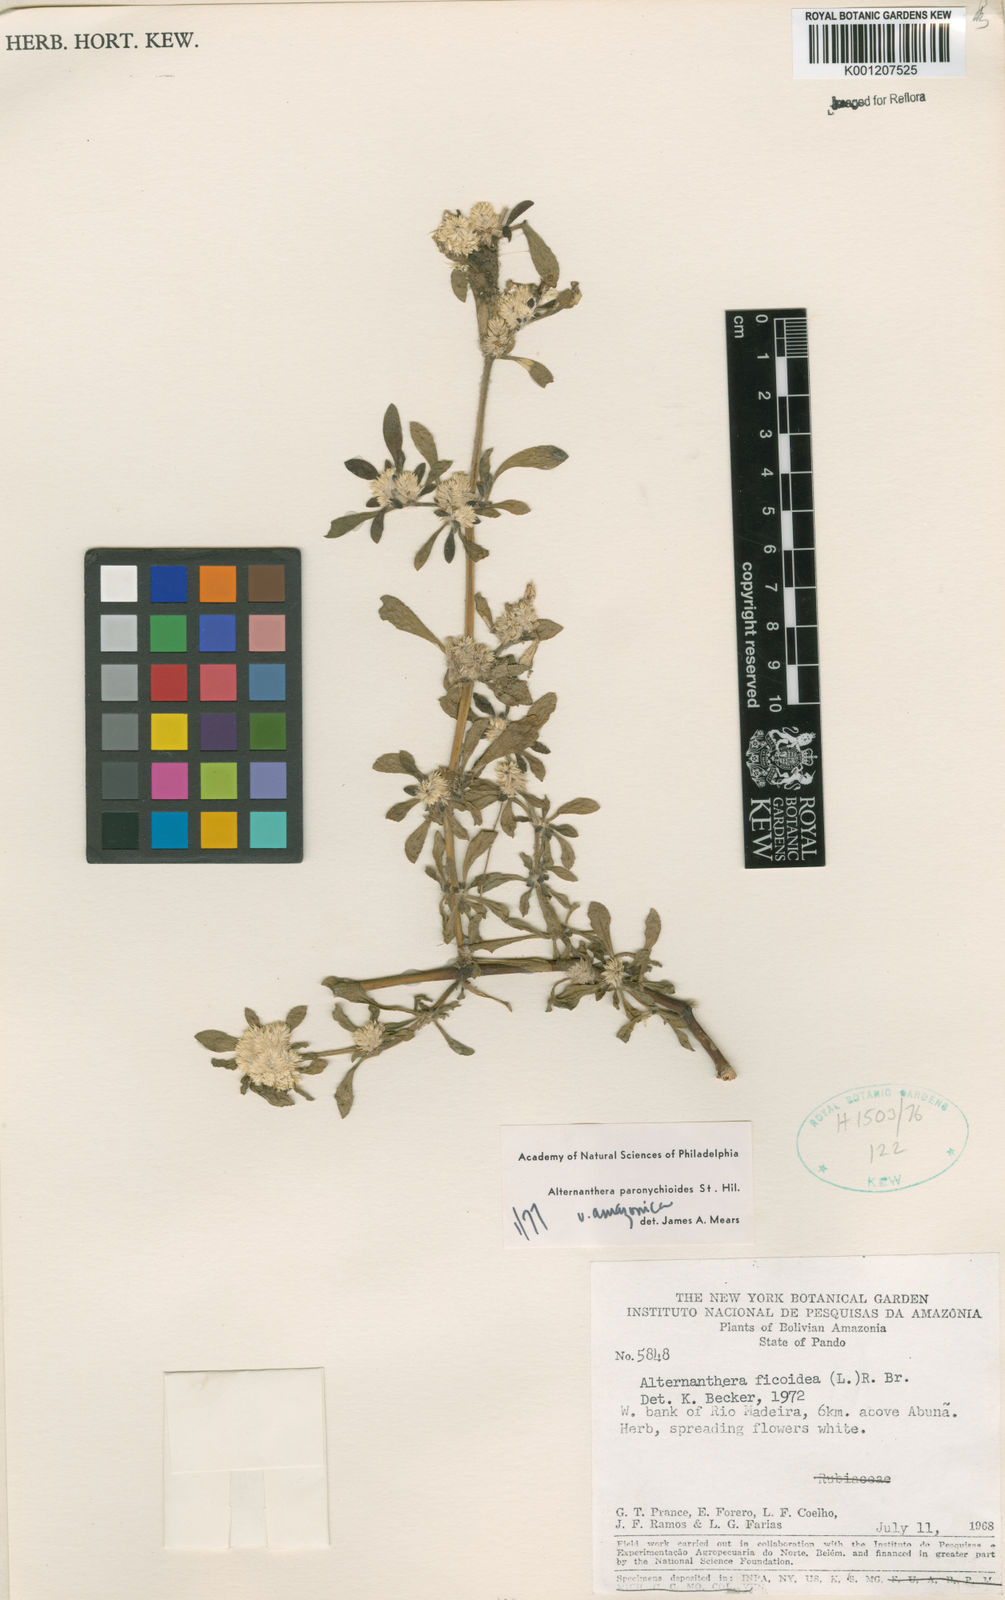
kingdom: Plantae
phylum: Tracheophyta
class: Magnoliopsida
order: Caryophyllales
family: Amaranthaceae
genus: Alternanthera
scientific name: Alternanthera paronychioides
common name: Smooth joyweed
